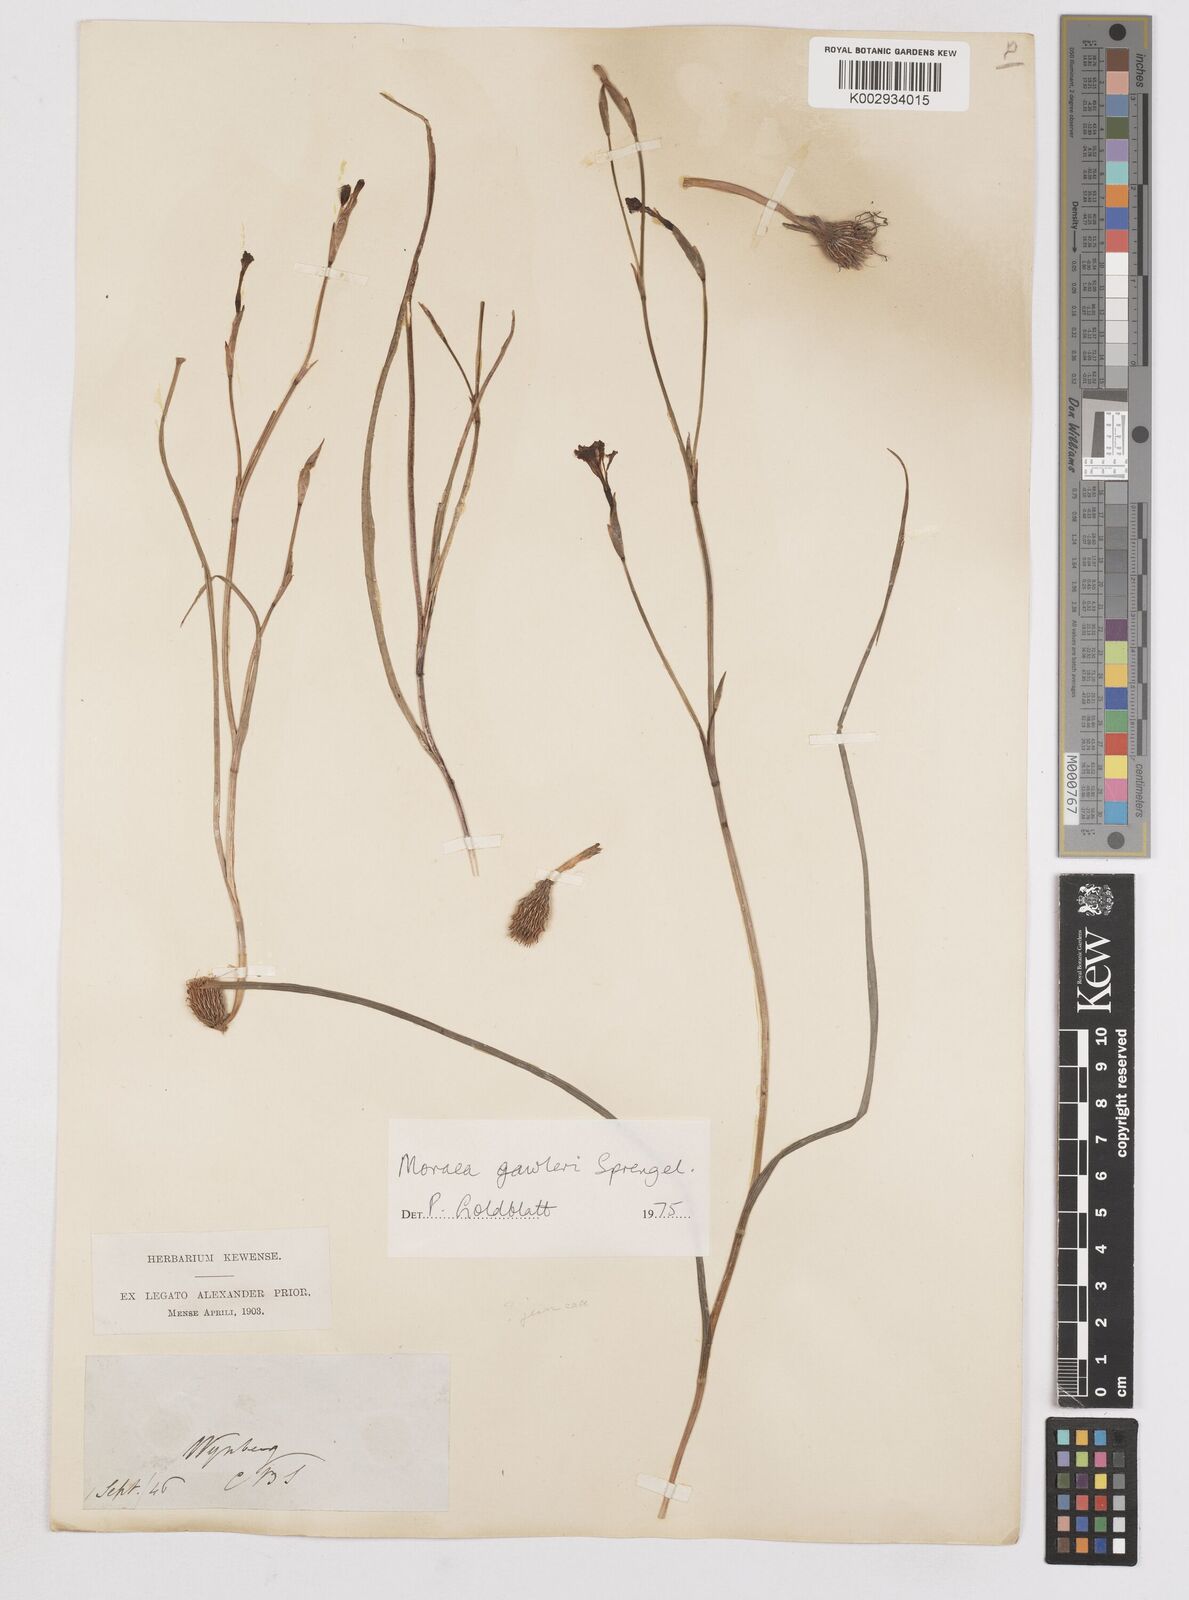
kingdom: Plantae
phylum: Tracheophyta
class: Liliopsida
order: Asparagales
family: Iridaceae
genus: Moraea
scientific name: Moraea gawleri
